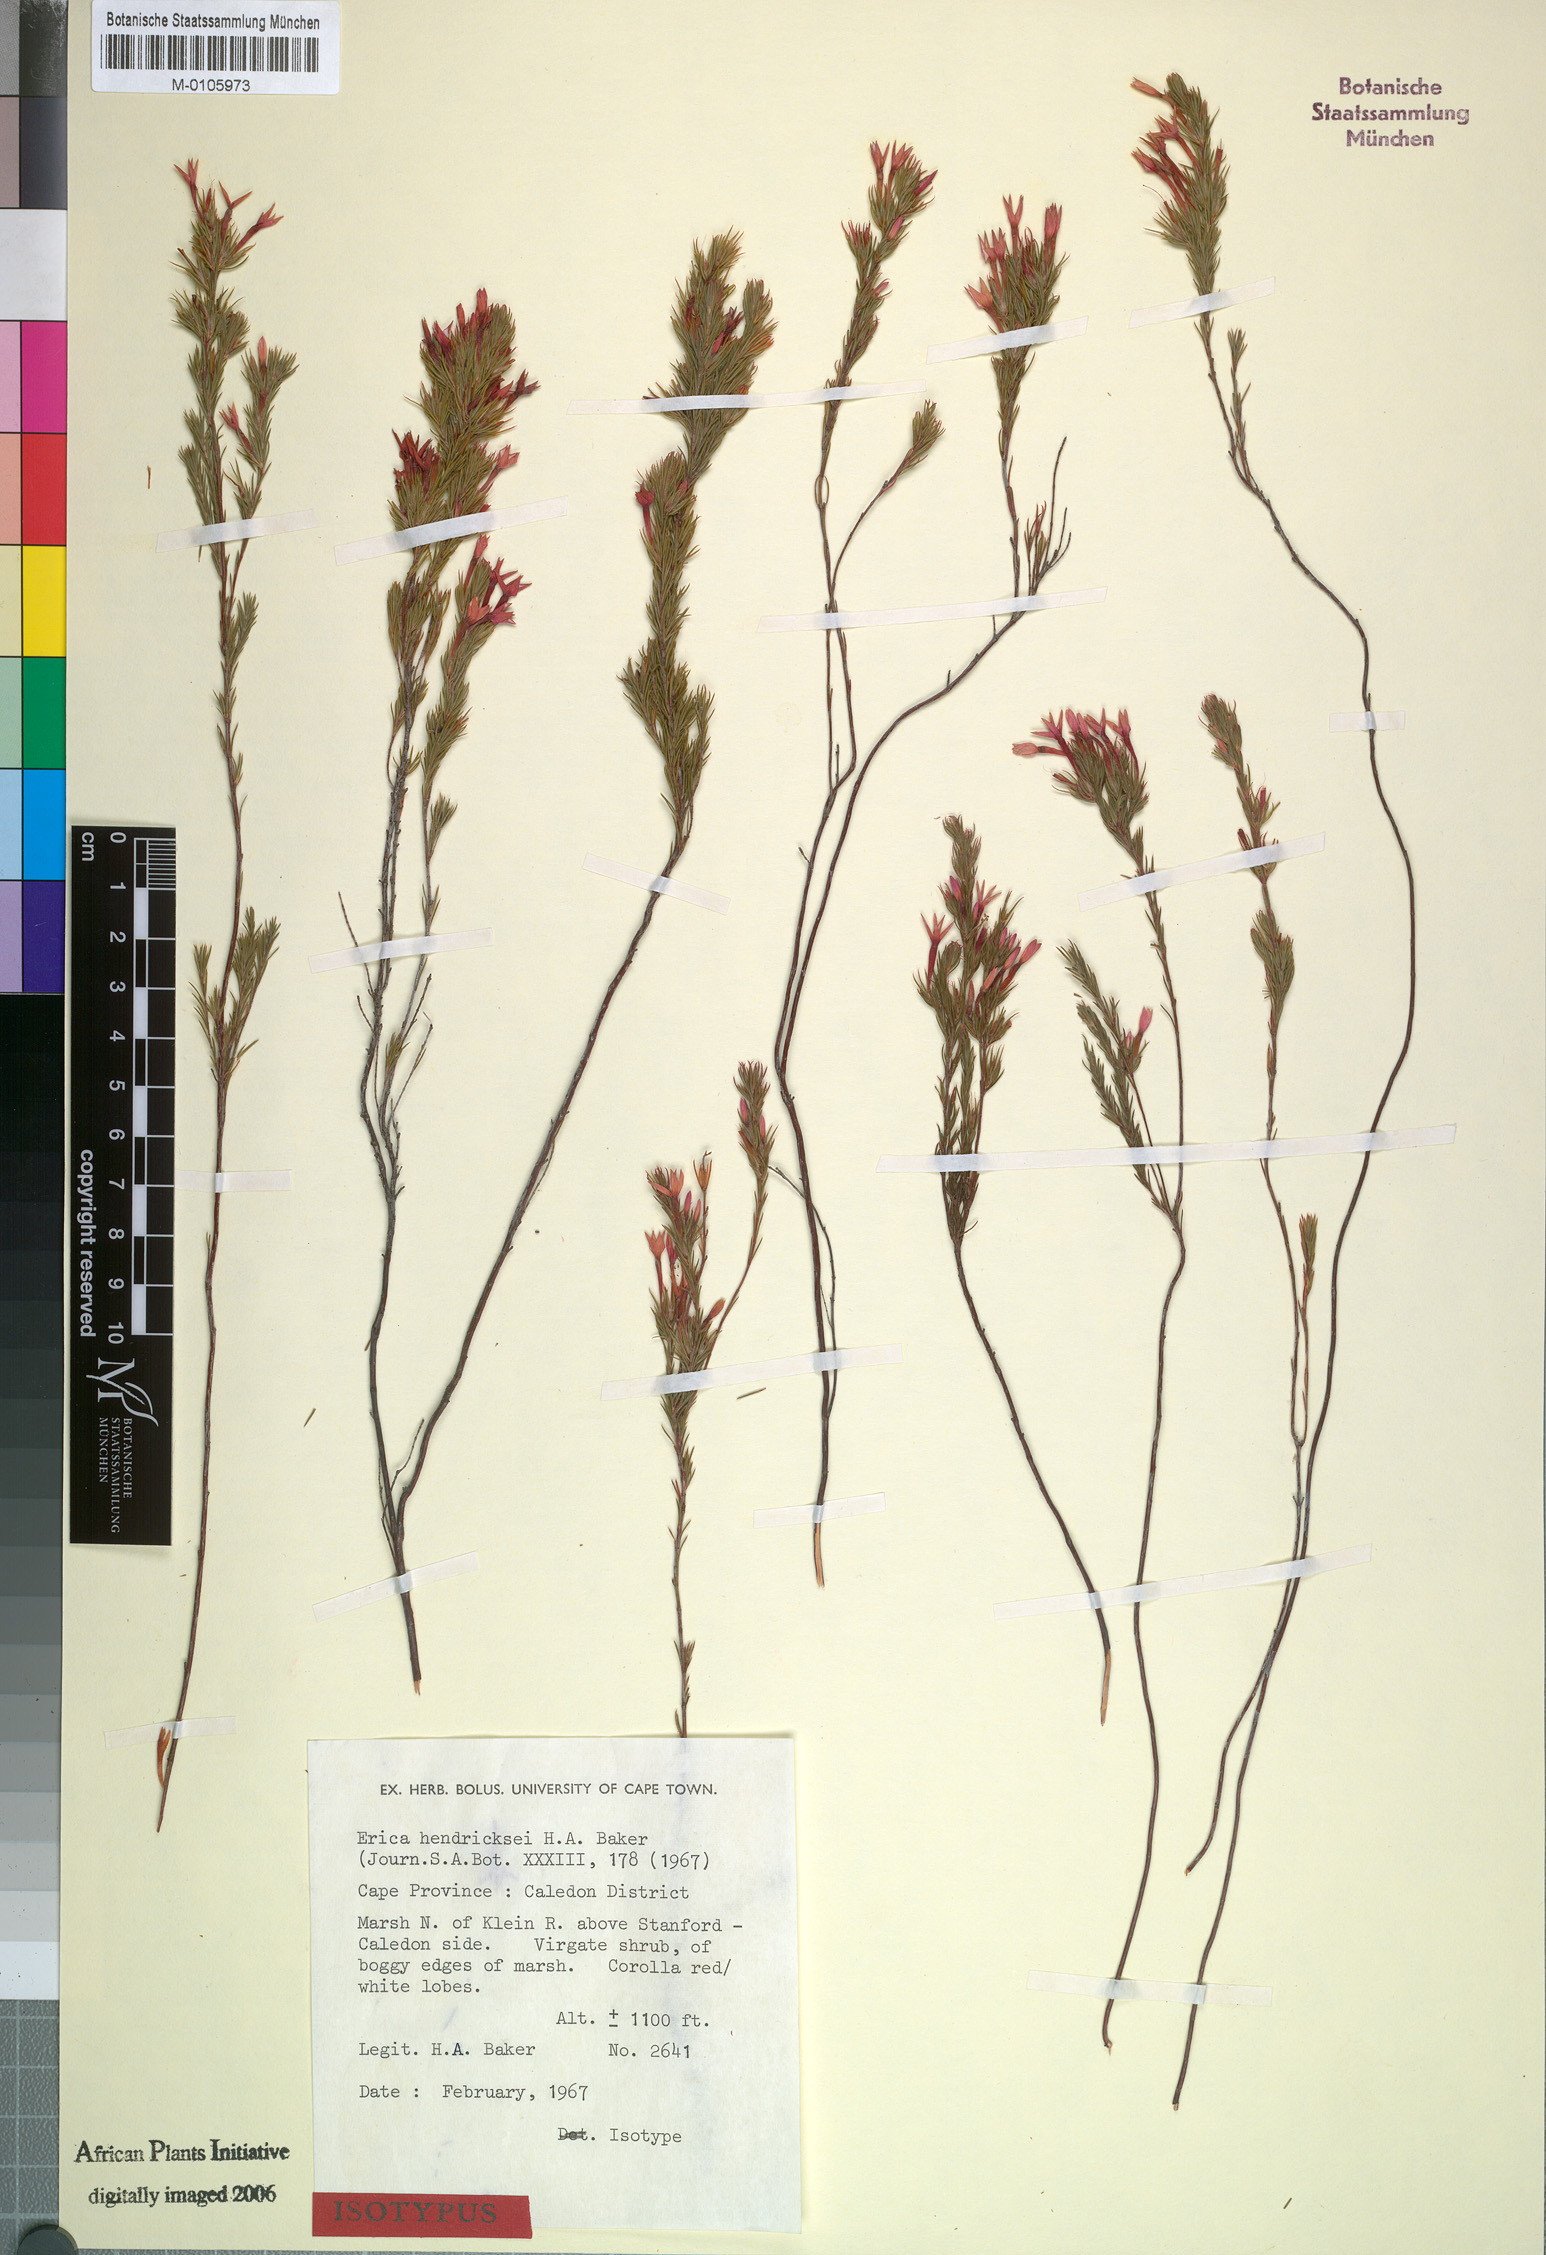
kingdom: Plantae
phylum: Tracheophyta
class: Magnoliopsida
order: Ericales
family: Ericaceae
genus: Erica
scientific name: Erica hendricksei
